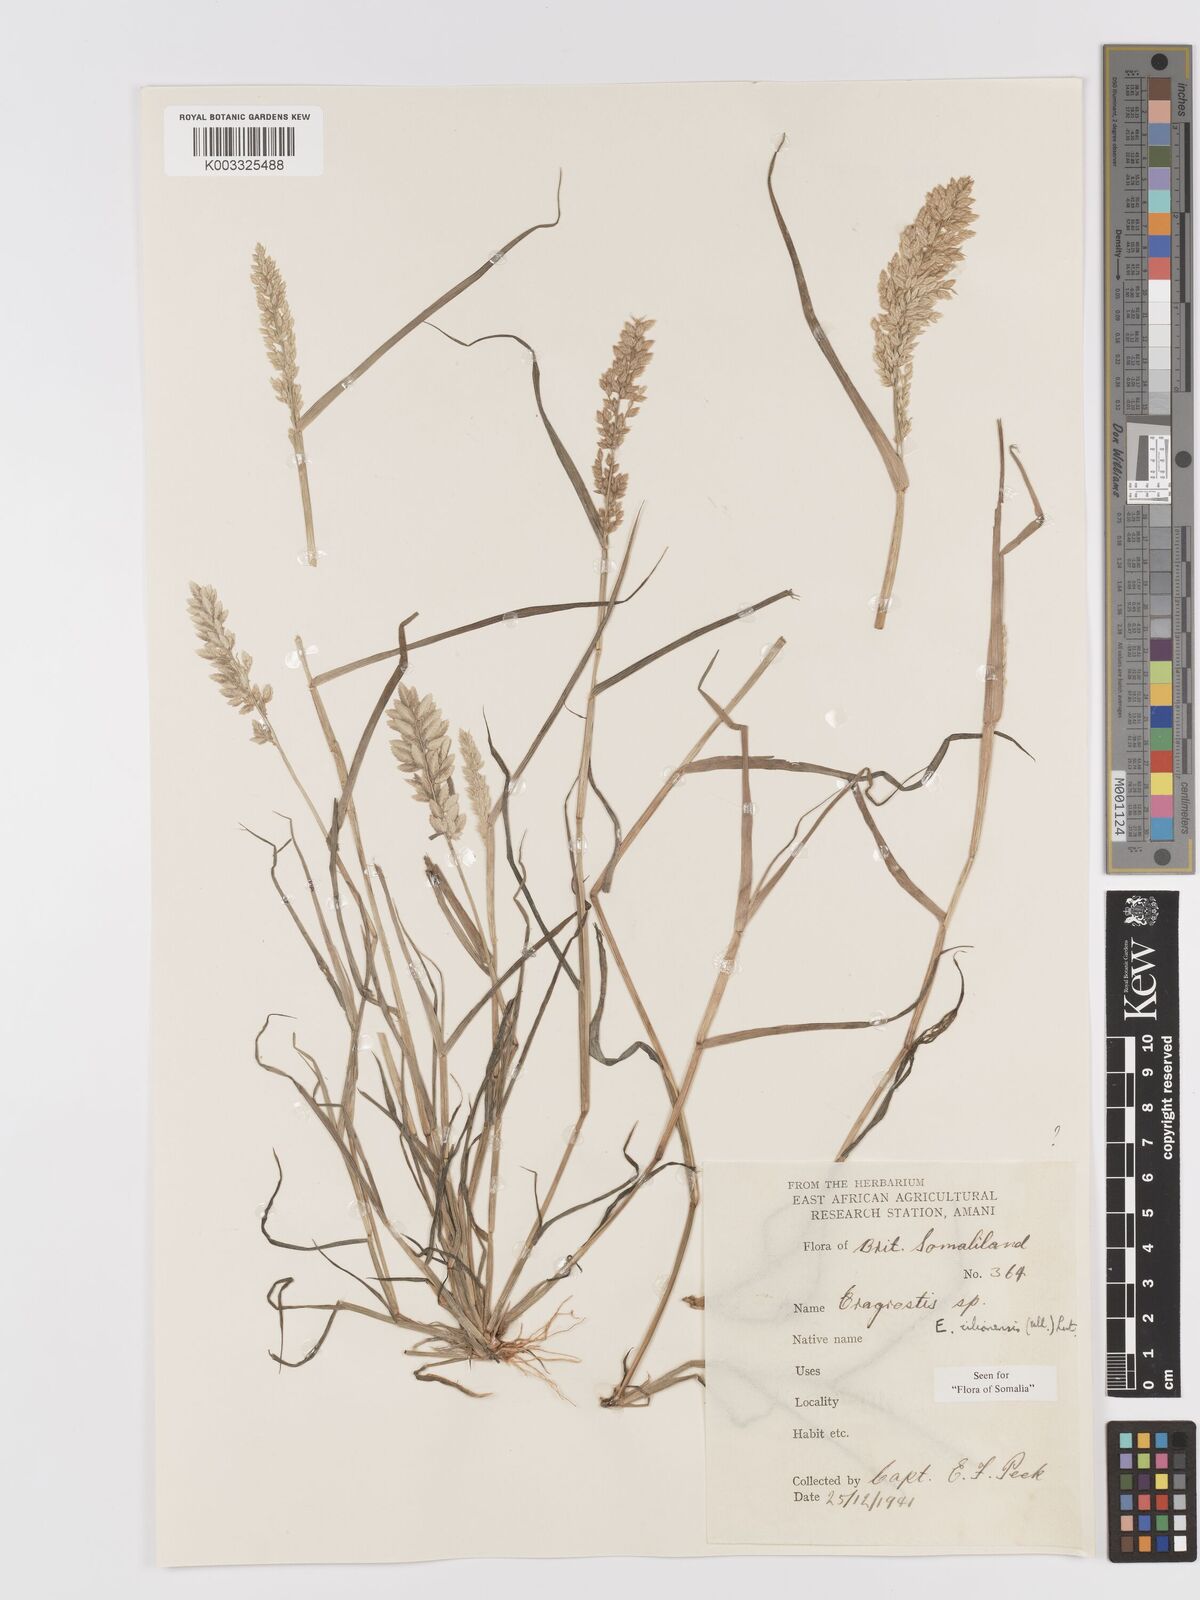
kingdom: Plantae
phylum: Tracheophyta
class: Liliopsida
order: Poales
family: Poaceae
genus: Eragrostis
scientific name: Eragrostis cilianensis
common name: Stinkgrass
